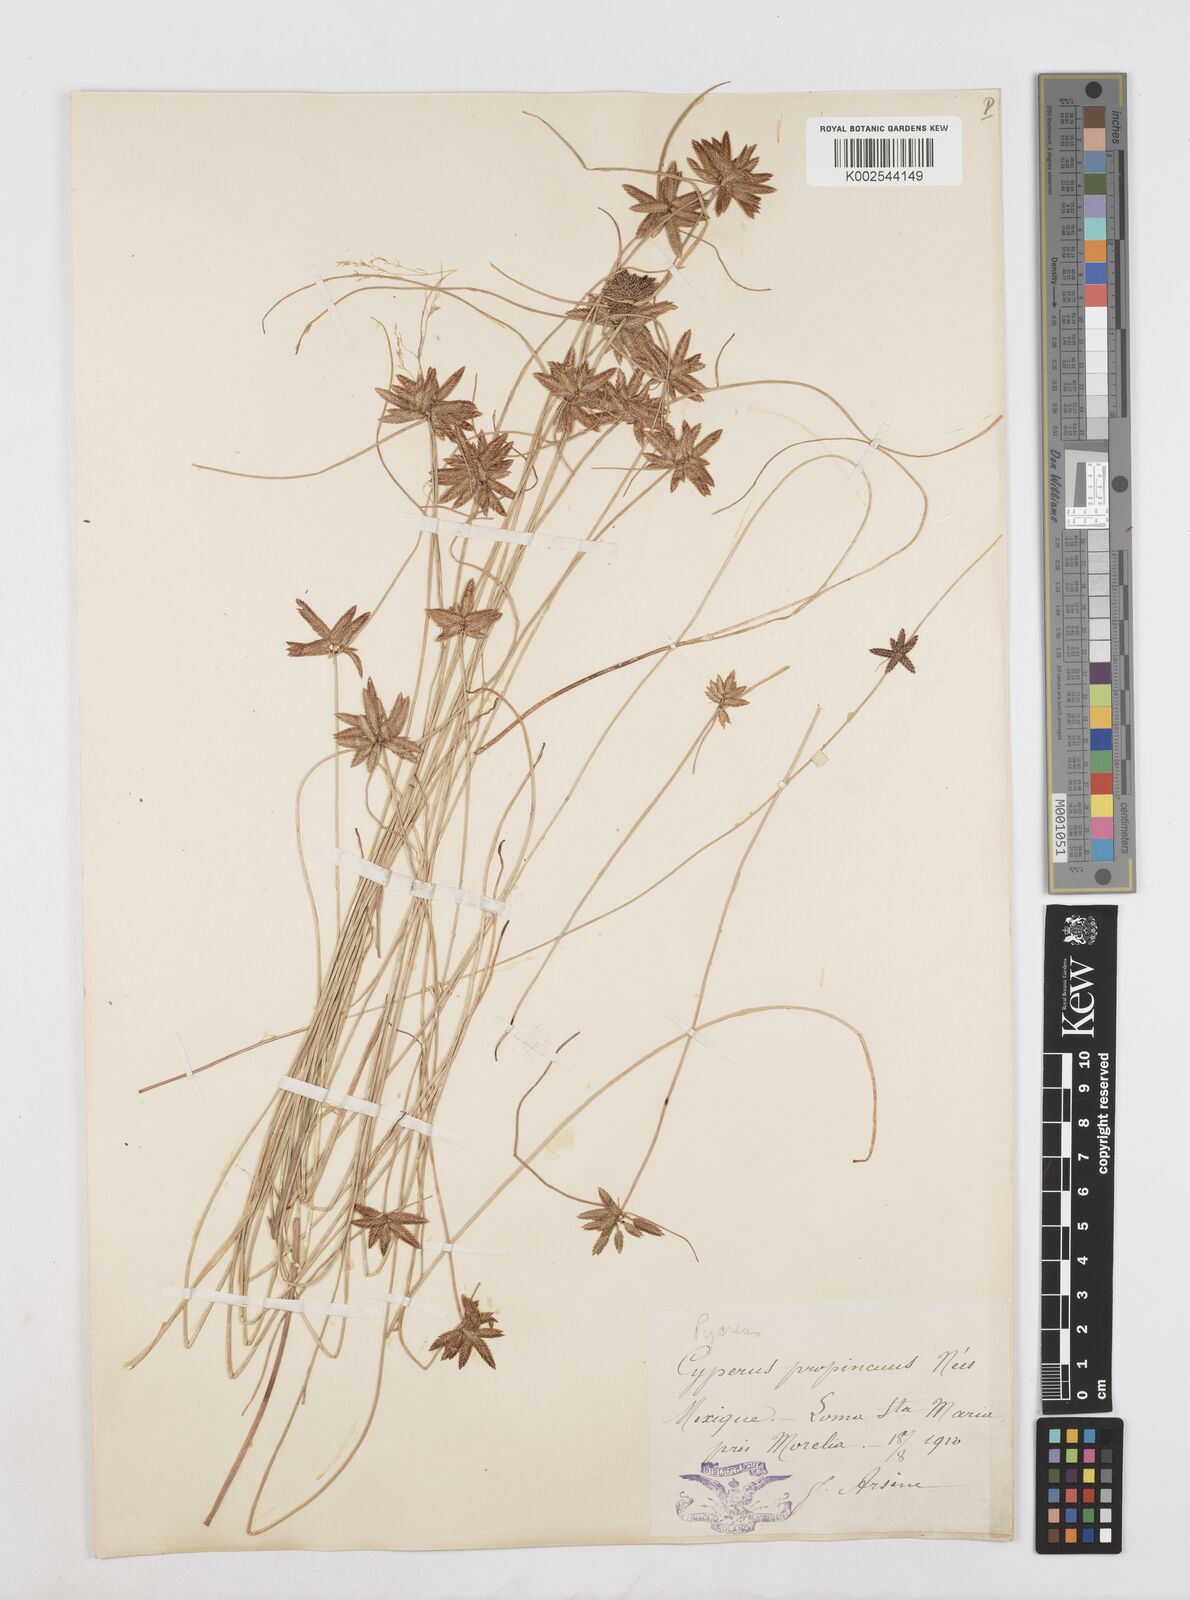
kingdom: Plantae
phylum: Tracheophyta
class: Liliopsida
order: Poales
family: Cyperaceae
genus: Cyperus
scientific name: Cyperus melanostachyus
